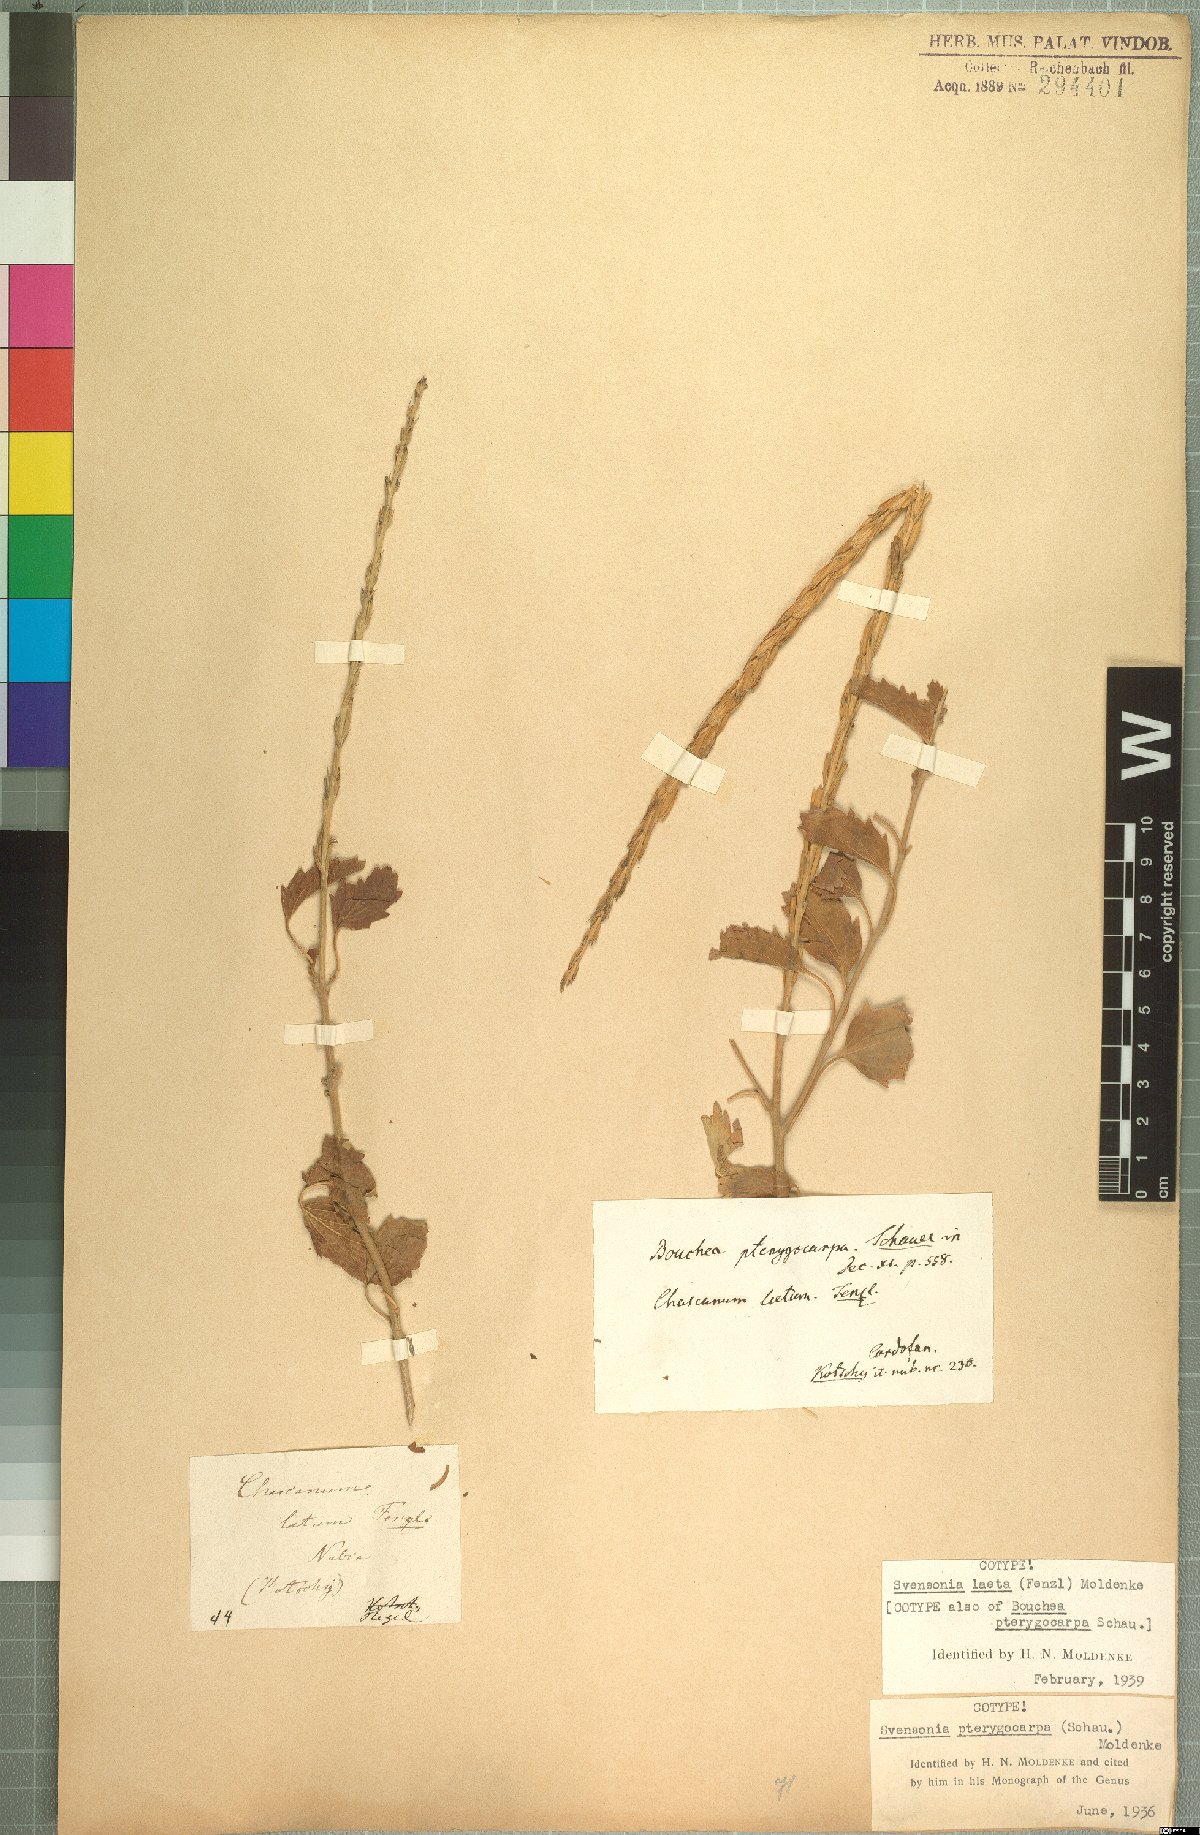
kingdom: Plantae
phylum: Tracheophyta
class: Magnoliopsida
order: Lamiales
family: Verbenaceae
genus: Chascanum
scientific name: Chascanum laetum
